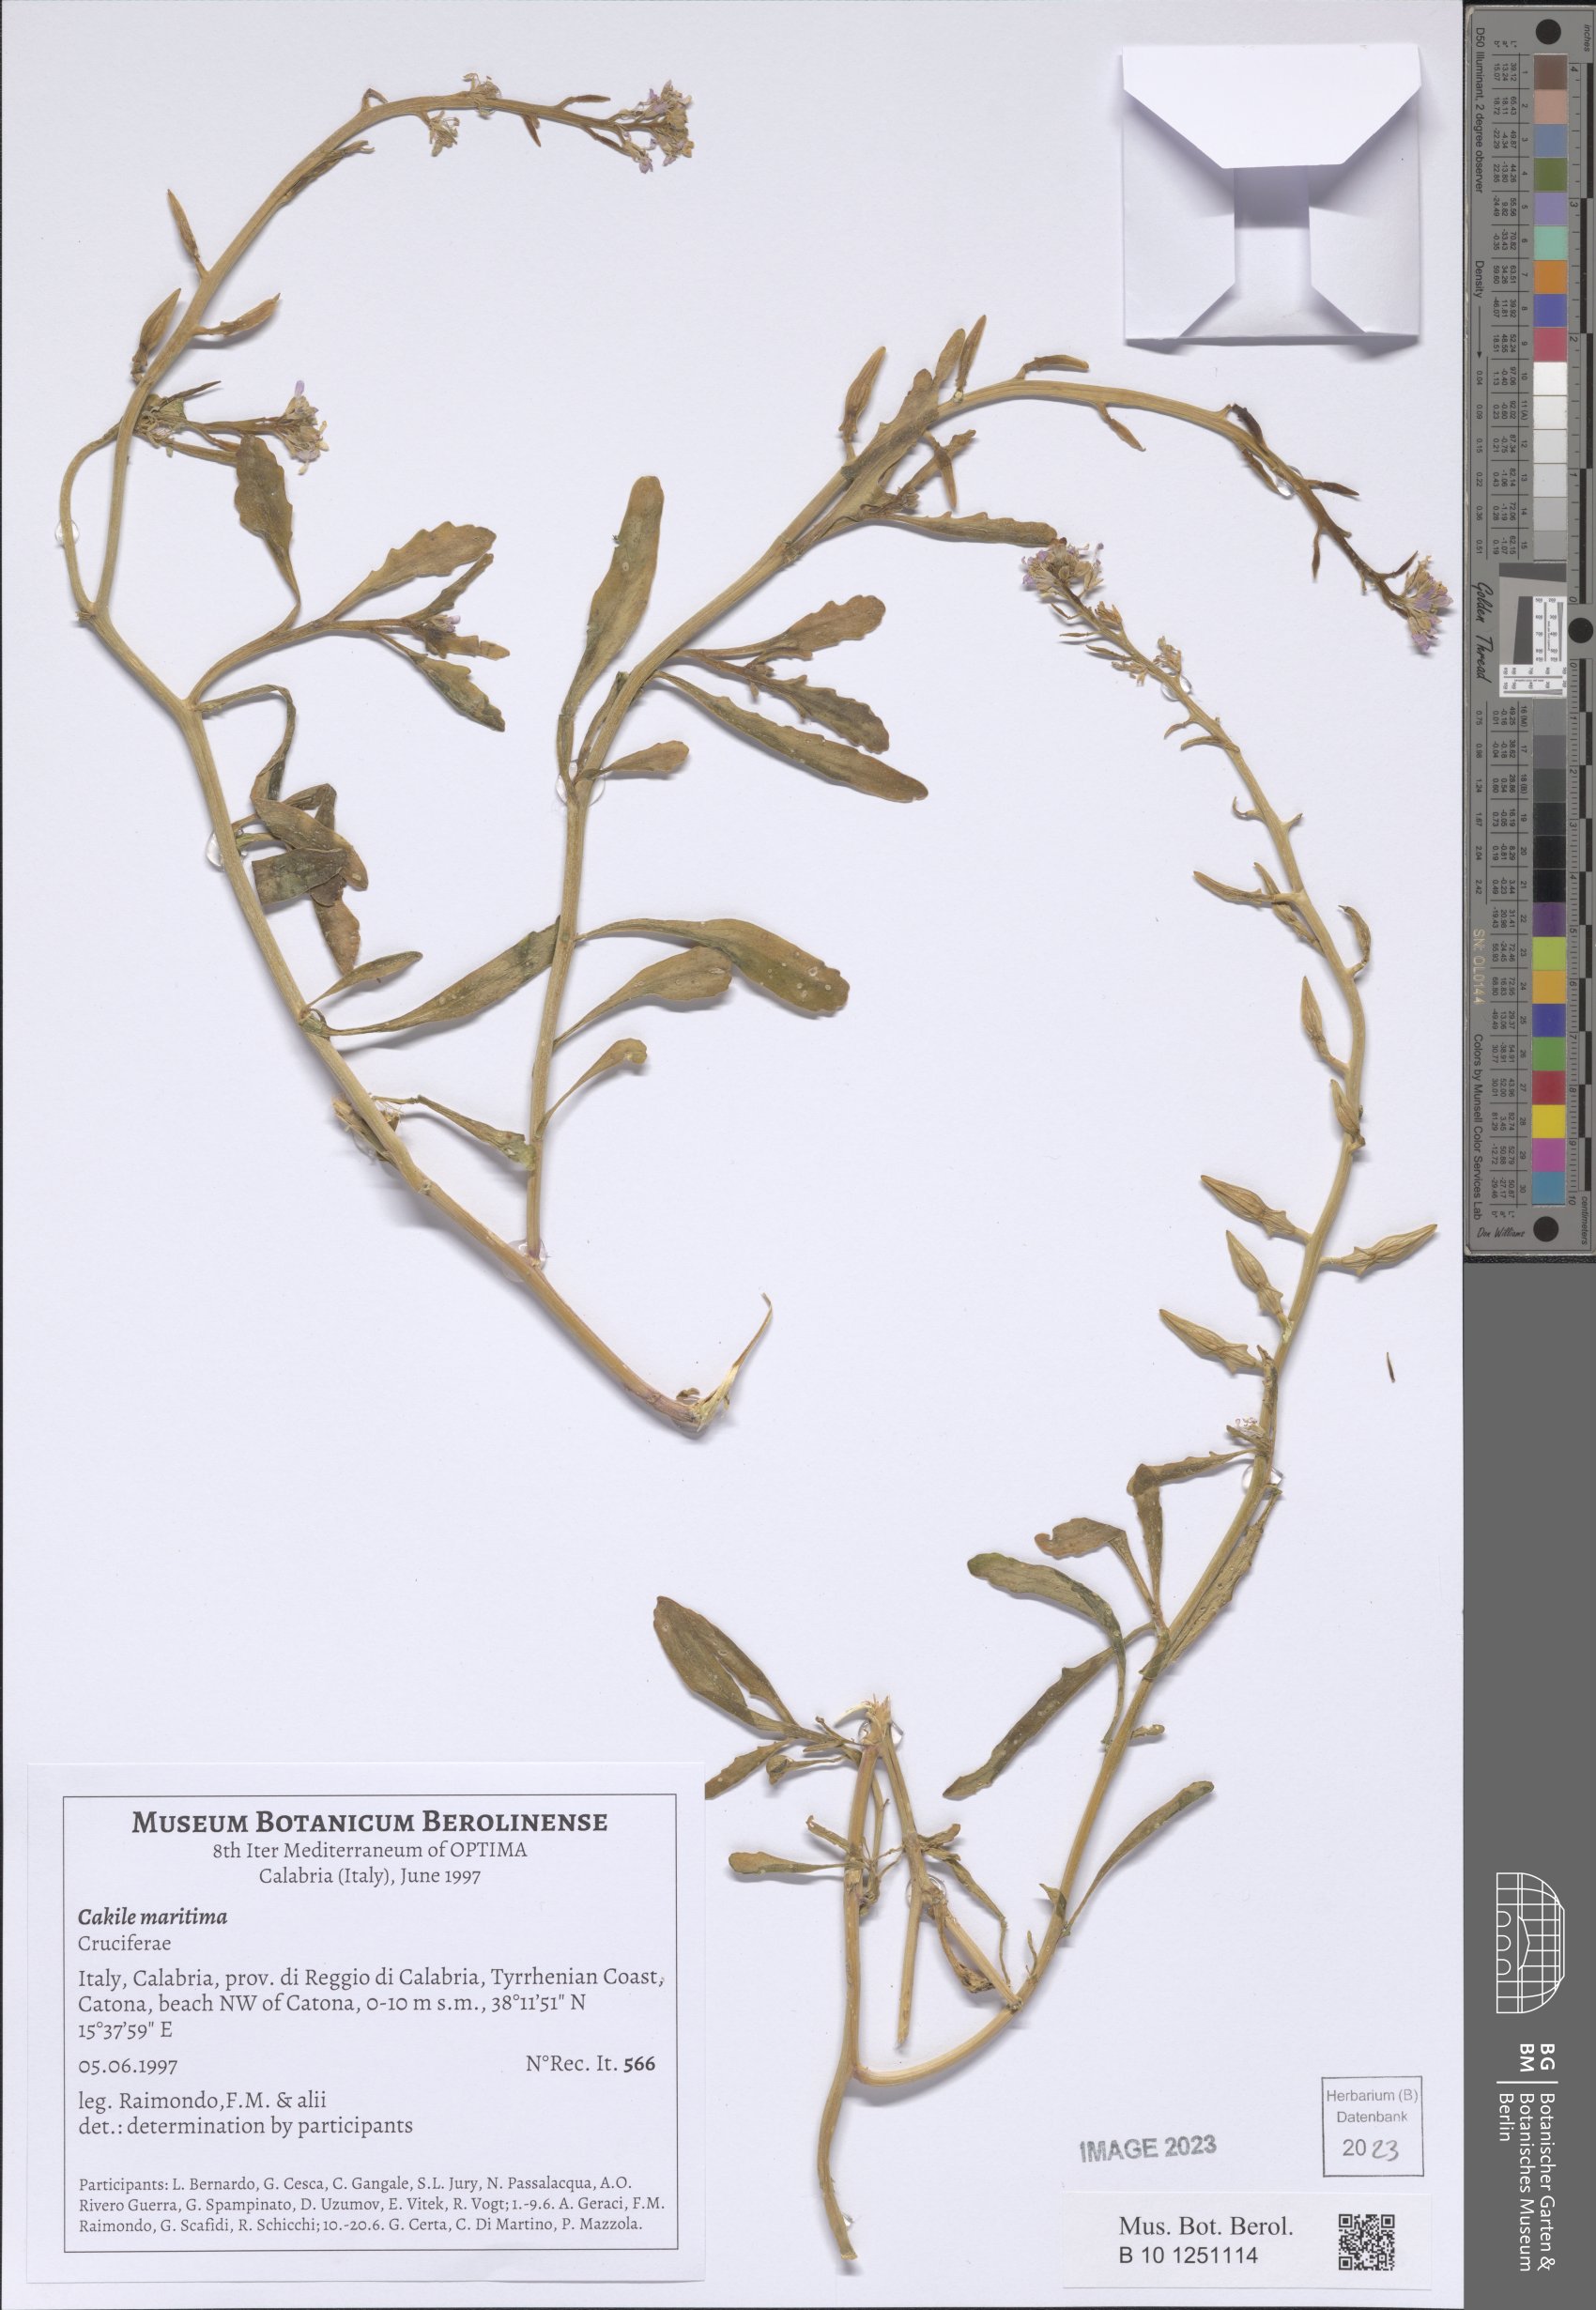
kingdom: Plantae
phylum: Tracheophyta
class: Magnoliopsida
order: Brassicales
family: Brassicaceae
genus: Cakile
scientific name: Cakile maritima
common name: Sea rocket
